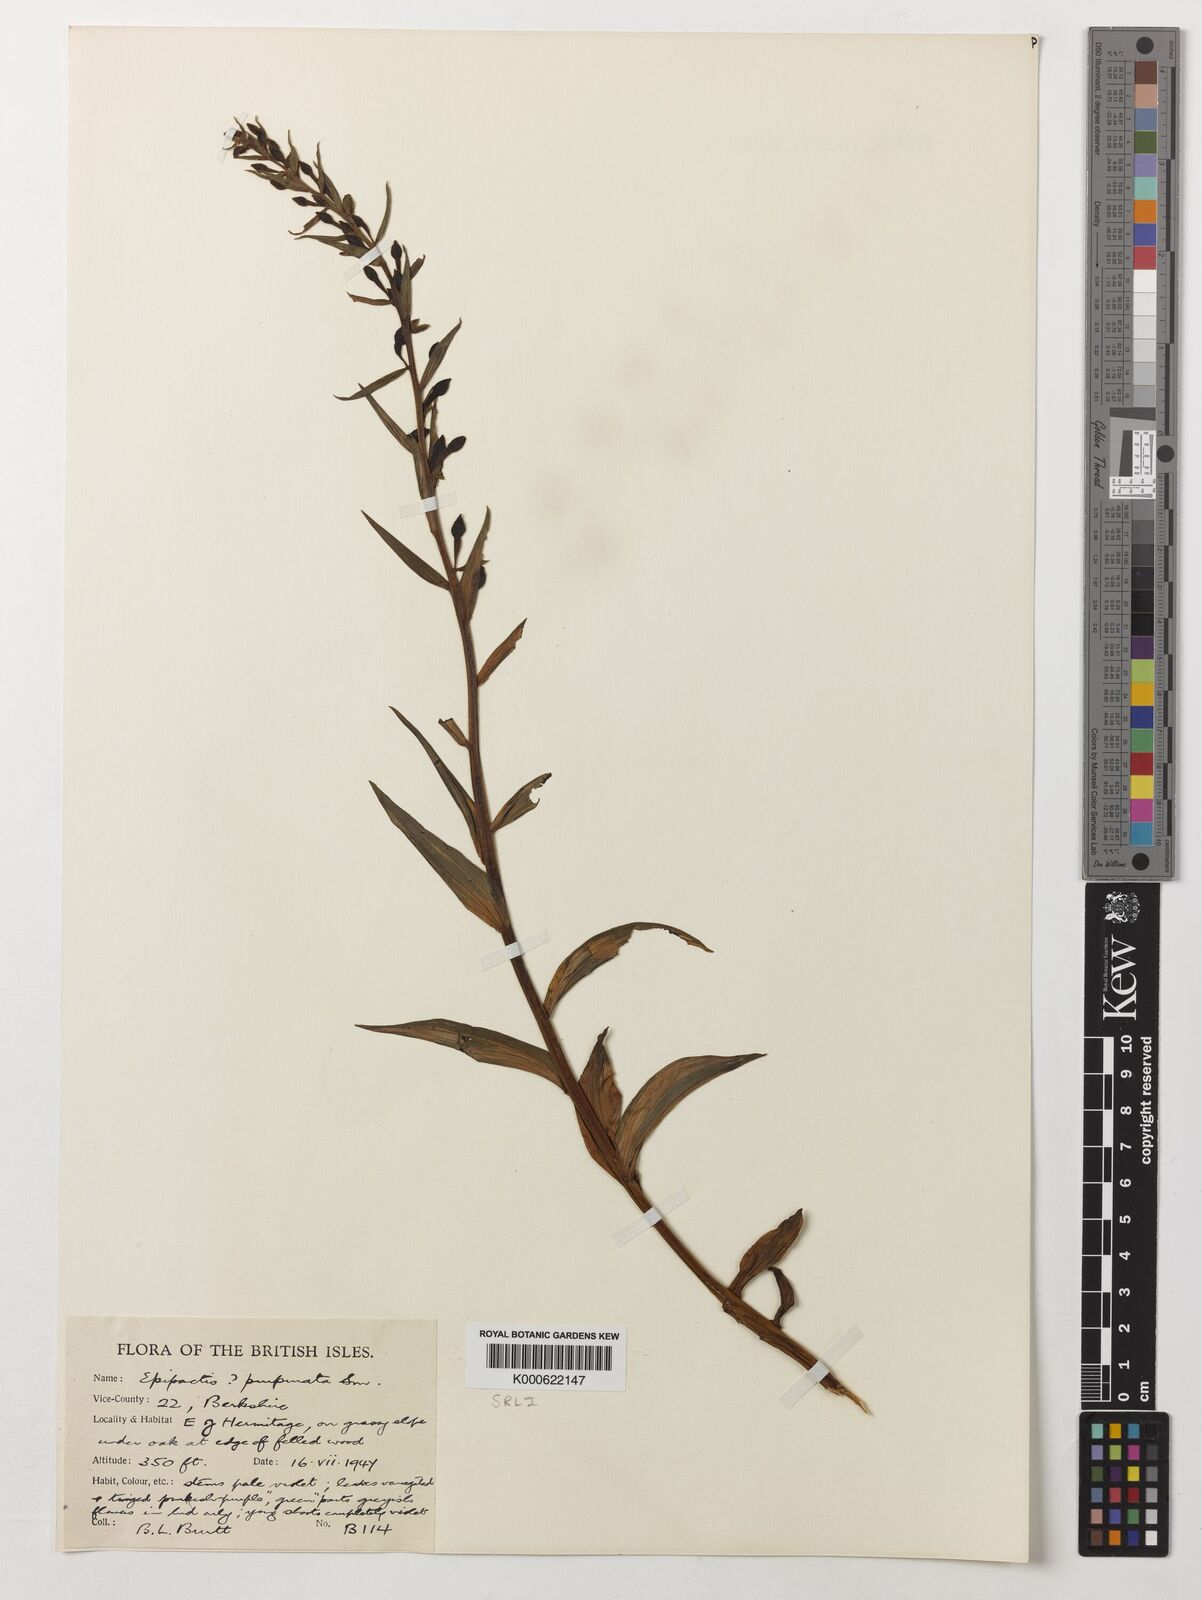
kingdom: Plantae
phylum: Tracheophyta
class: Liliopsida
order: Asparagales
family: Orchidaceae
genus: Epipactis
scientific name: Epipactis purpurata
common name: Violet helleborine
